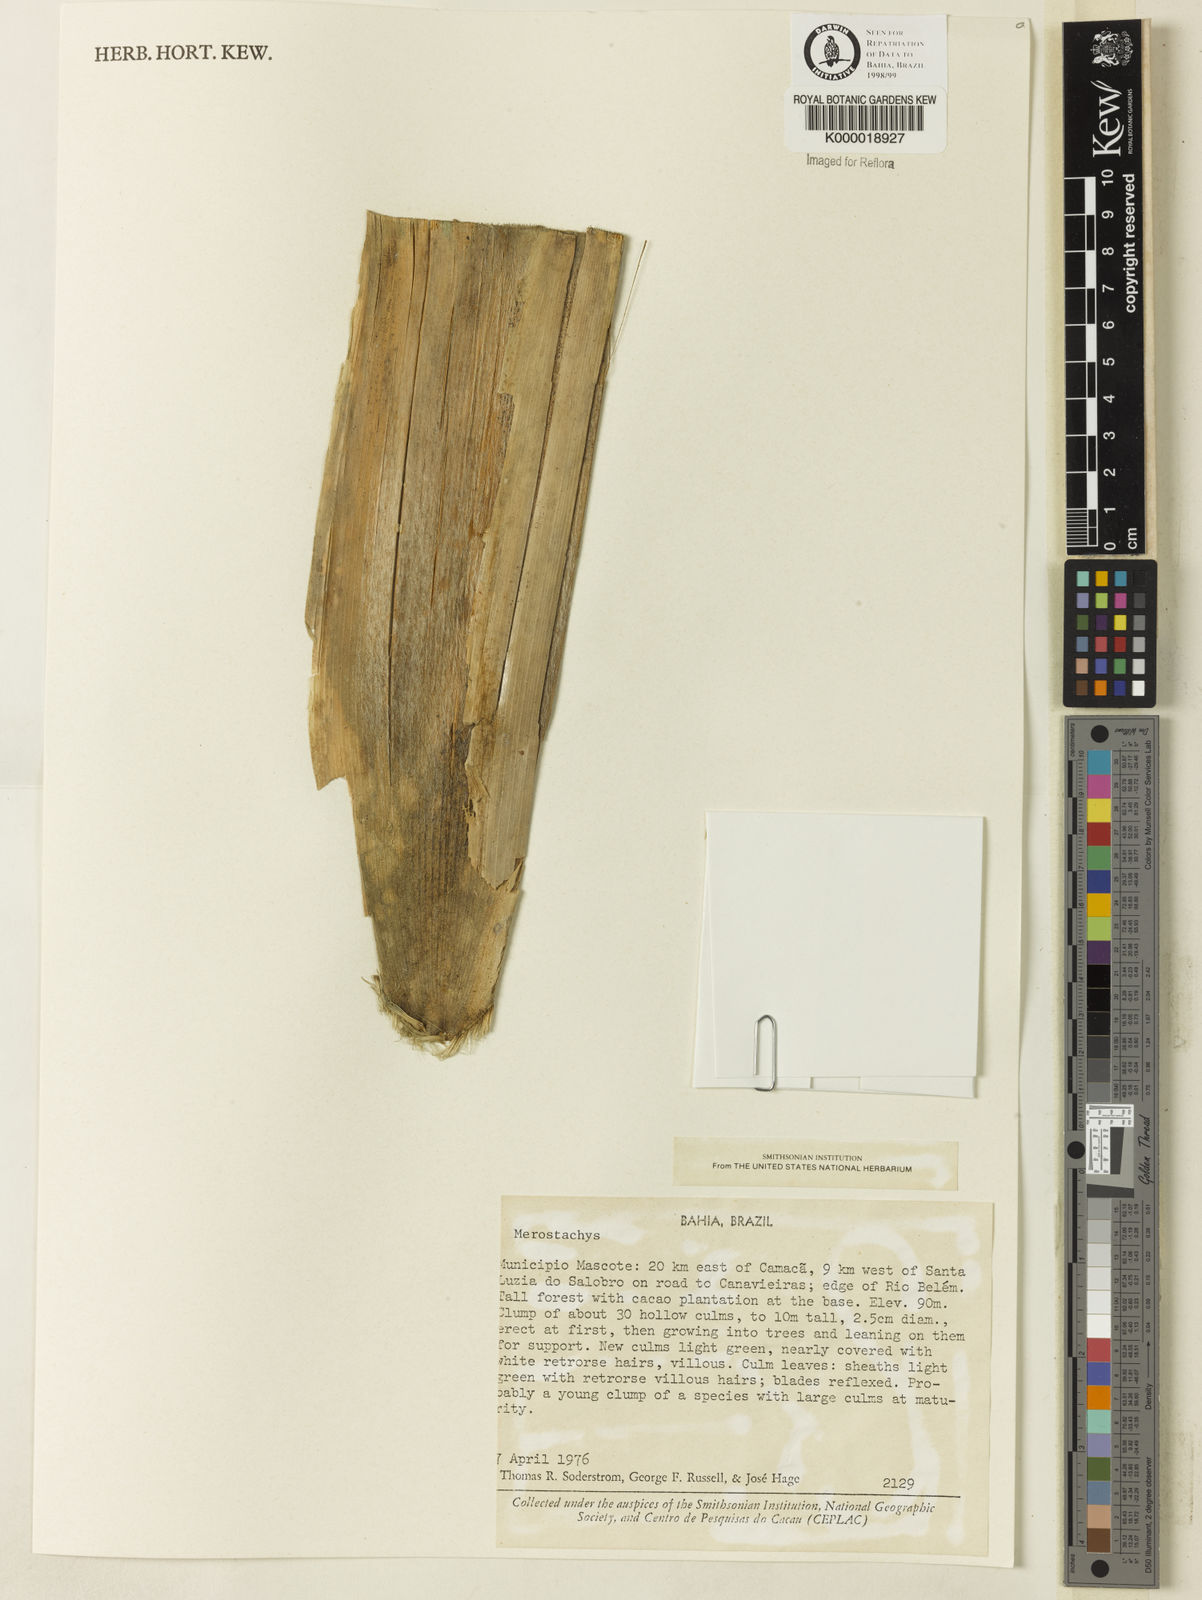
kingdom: Plantae
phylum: Tracheophyta
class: Liliopsida
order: Poales
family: Poaceae
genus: Merostachys
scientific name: Merostachys
